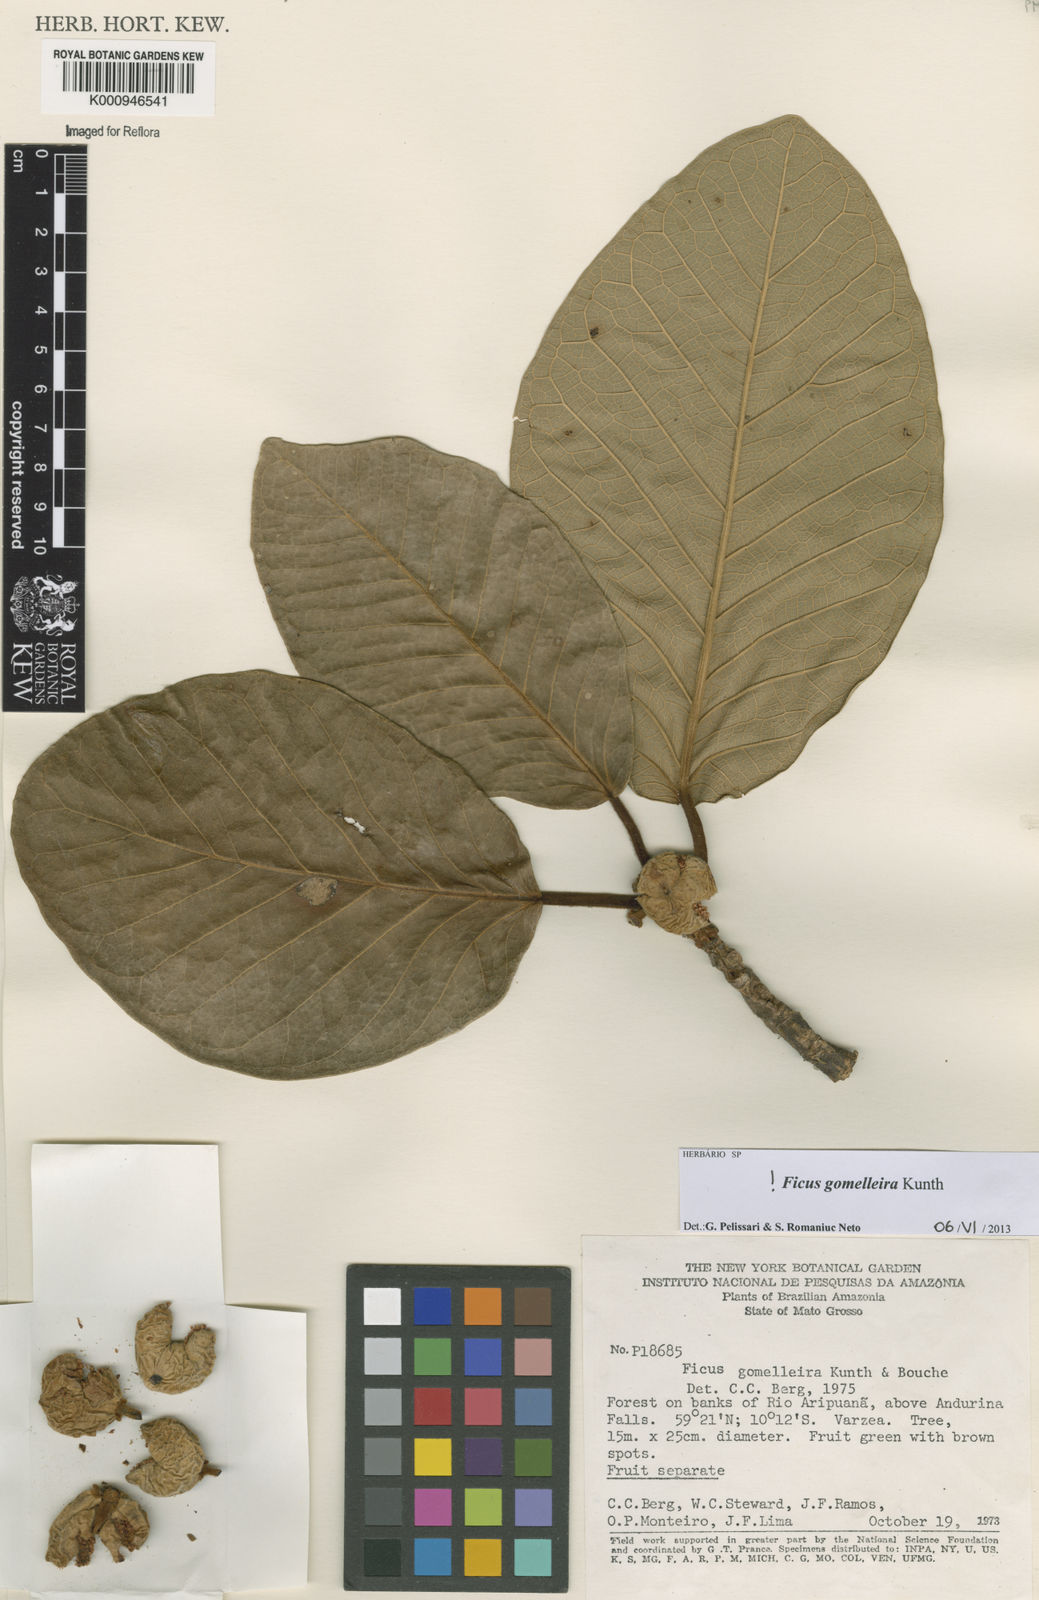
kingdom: Plantae
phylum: Tracheophyta
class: Magnoliopsida
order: Rosales
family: Moraceae
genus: Ficus
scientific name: Ficus gomelleira
